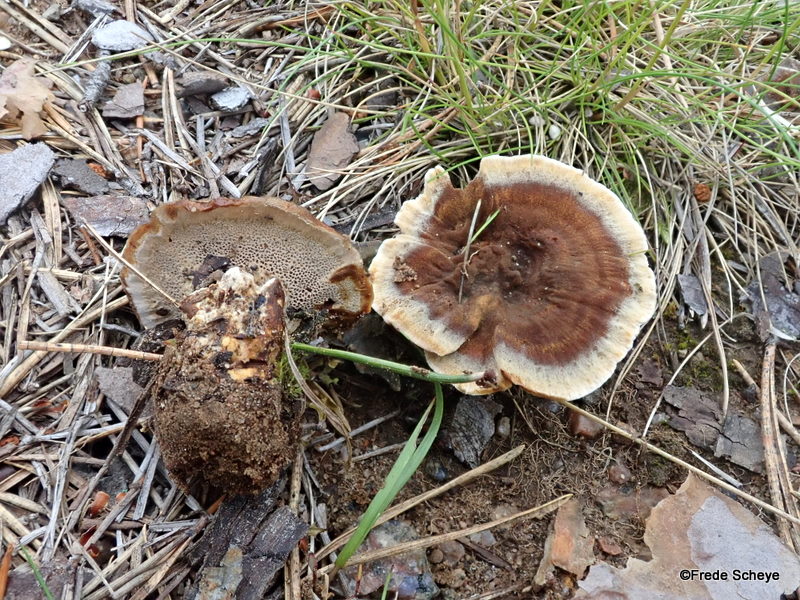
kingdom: Fungi
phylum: Basidiomycota
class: Agaricomycetes
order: Hymenochaetales
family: Hymenochaetaceae
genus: Coltricia
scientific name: Coltricia perennis
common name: almindelig sandporesvamp
